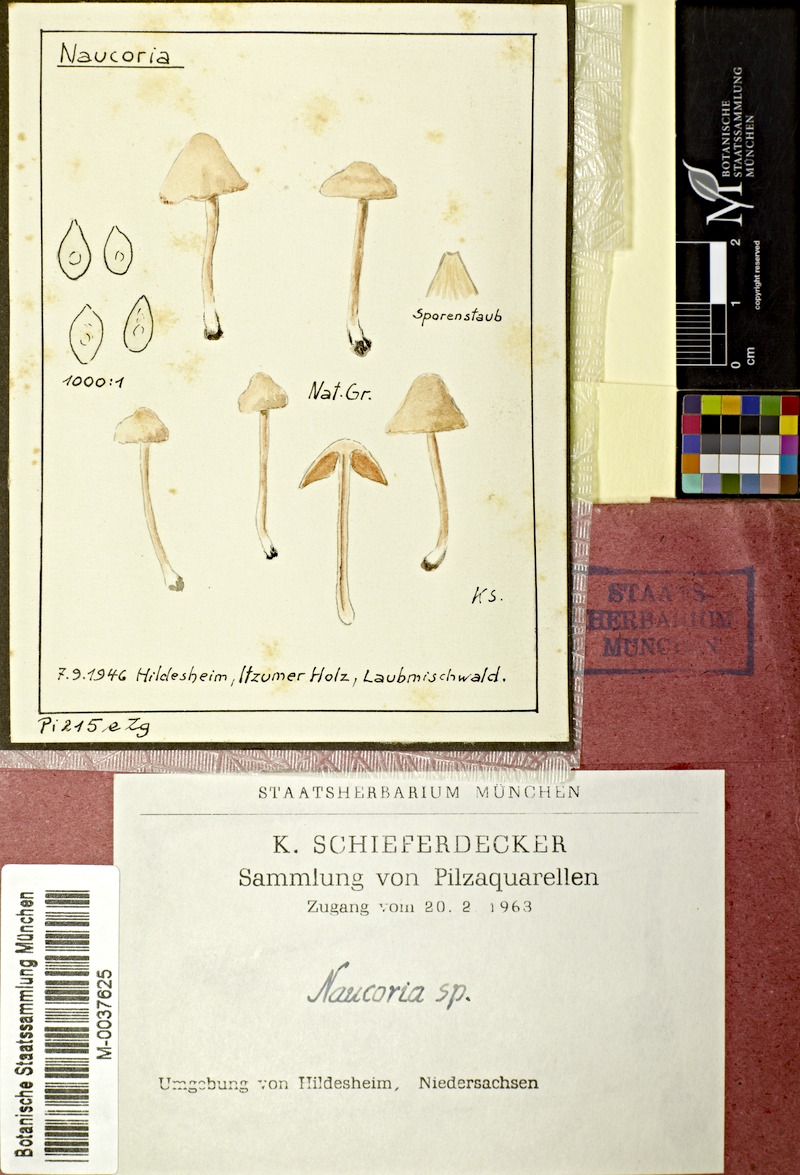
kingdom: Fungi
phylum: Basidiomycota
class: Agaricomycetes
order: Agaricales
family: Hymenogastraceae
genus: Naucoria
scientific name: Naucoria
